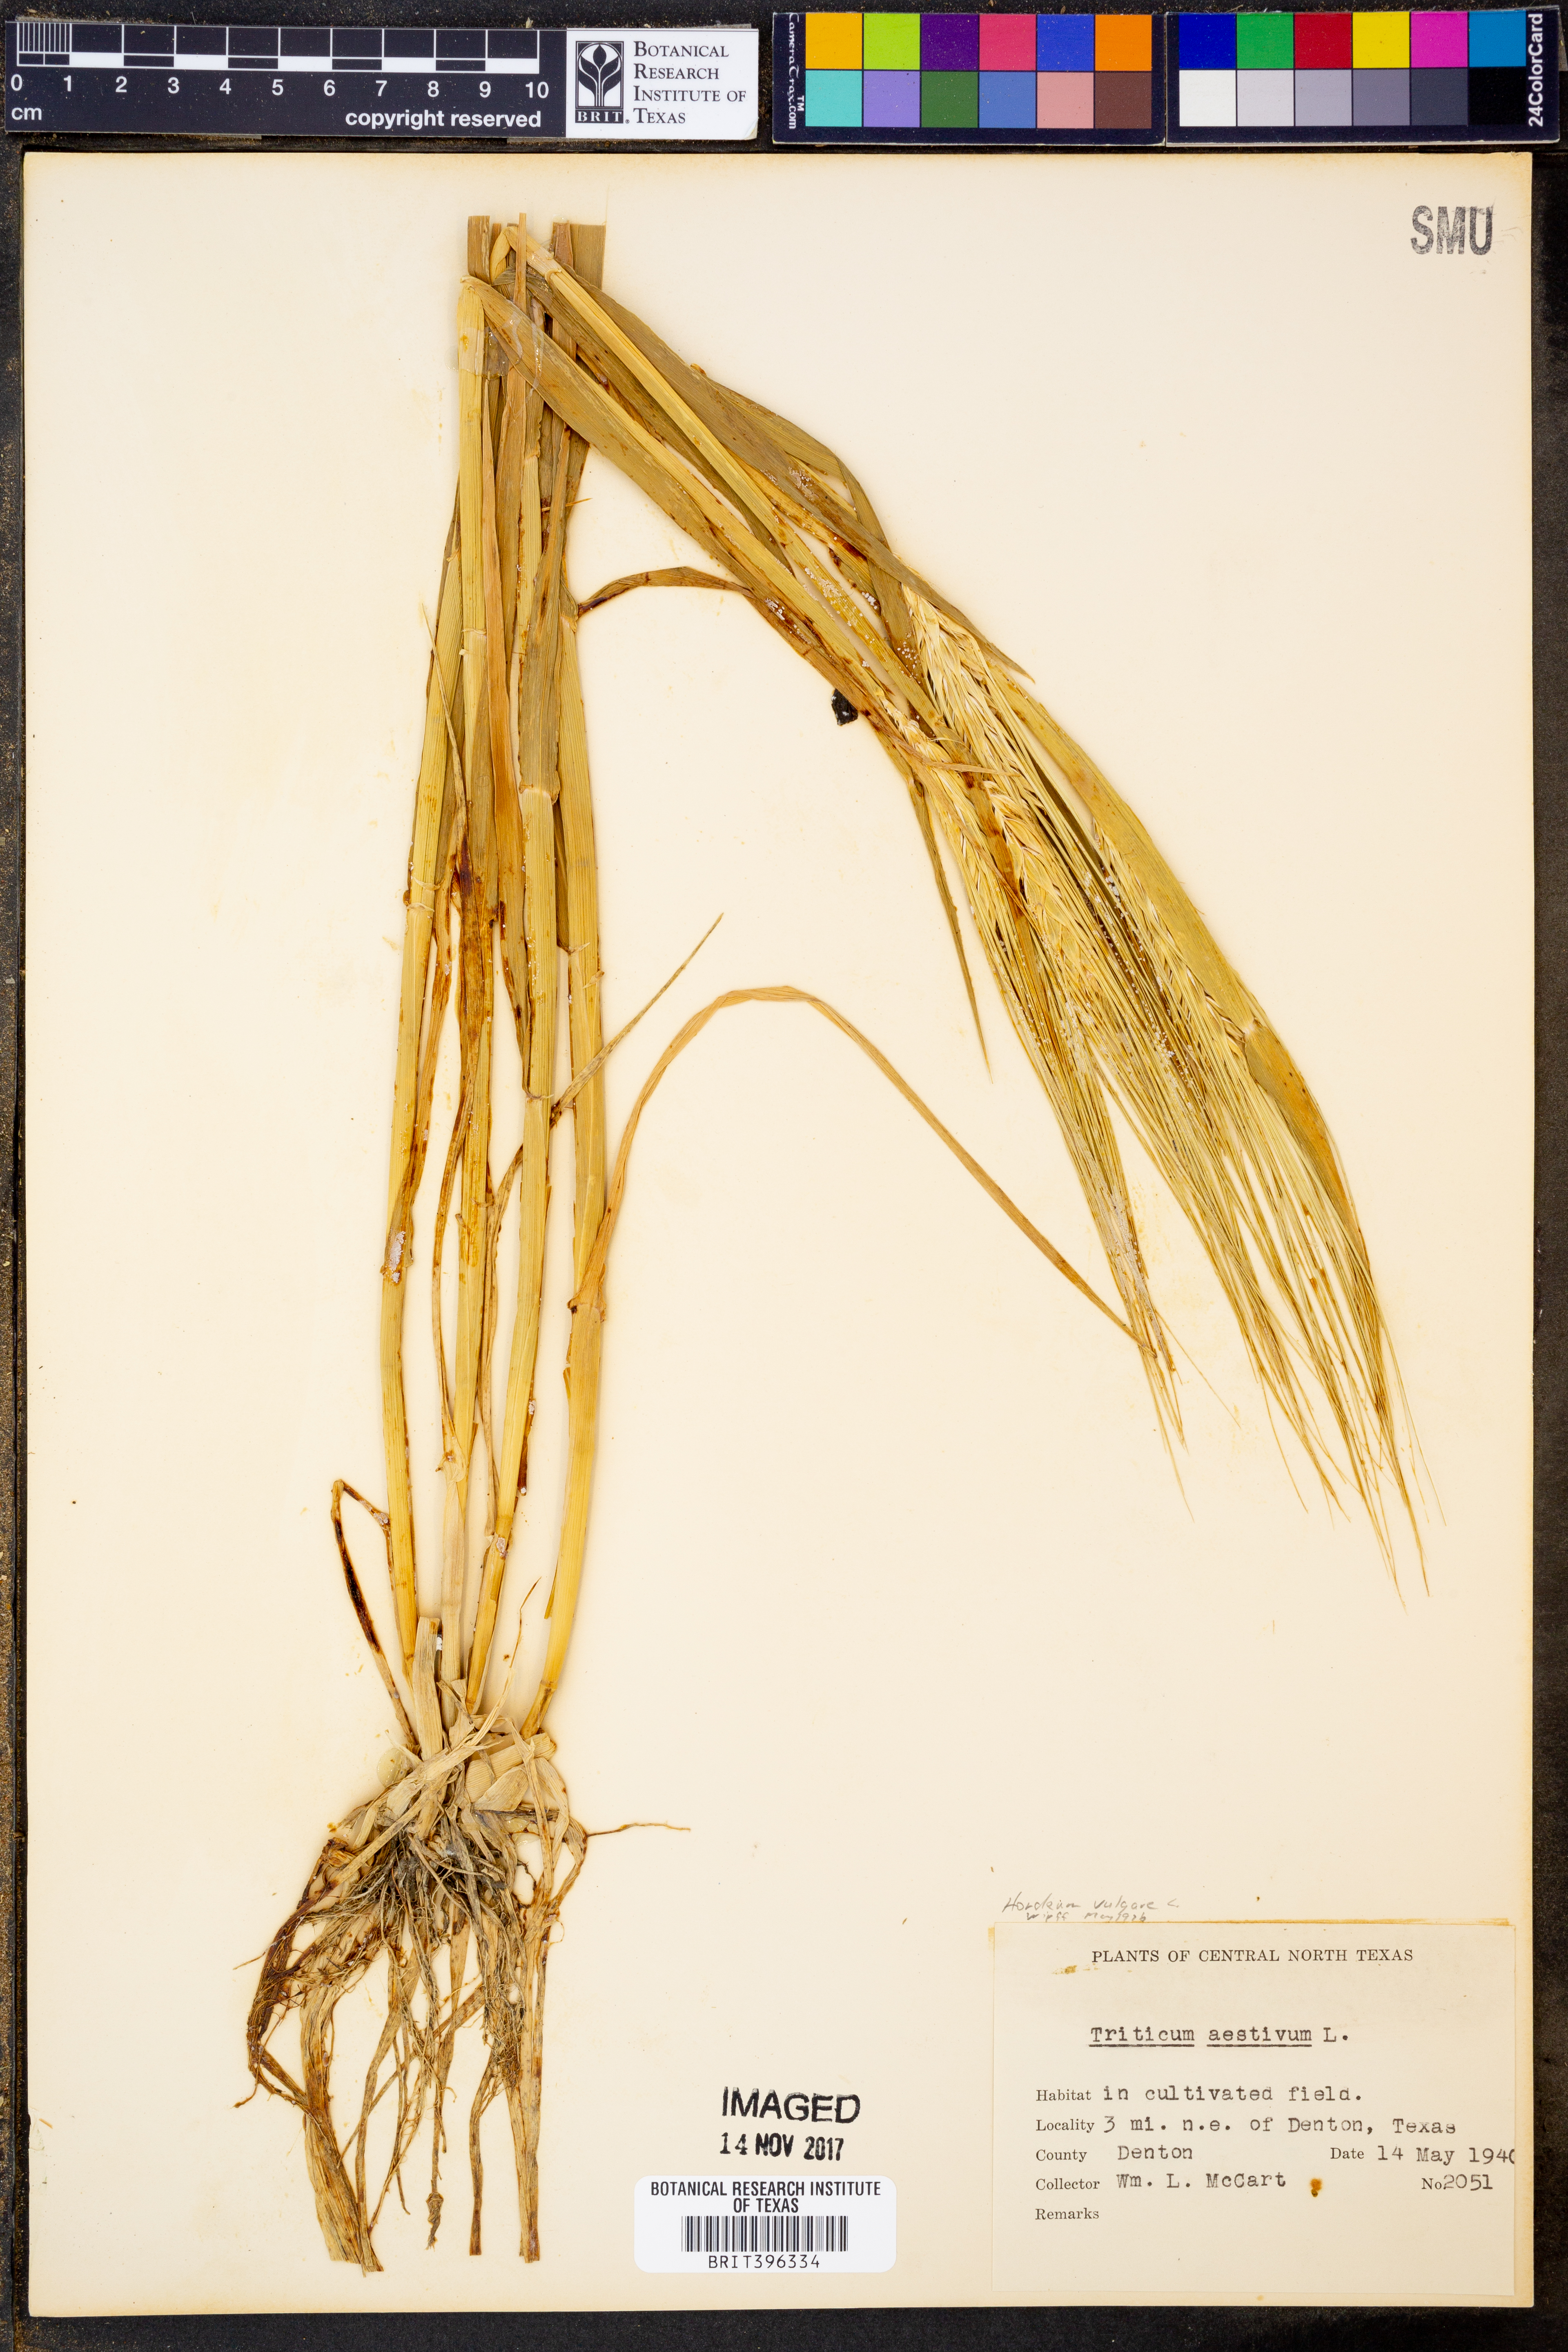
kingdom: Plantae
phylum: Tracheophyta
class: Liliopsida
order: Poales
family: Poaceae
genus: Triticum
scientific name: Triticum aestivum
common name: Common wheat
